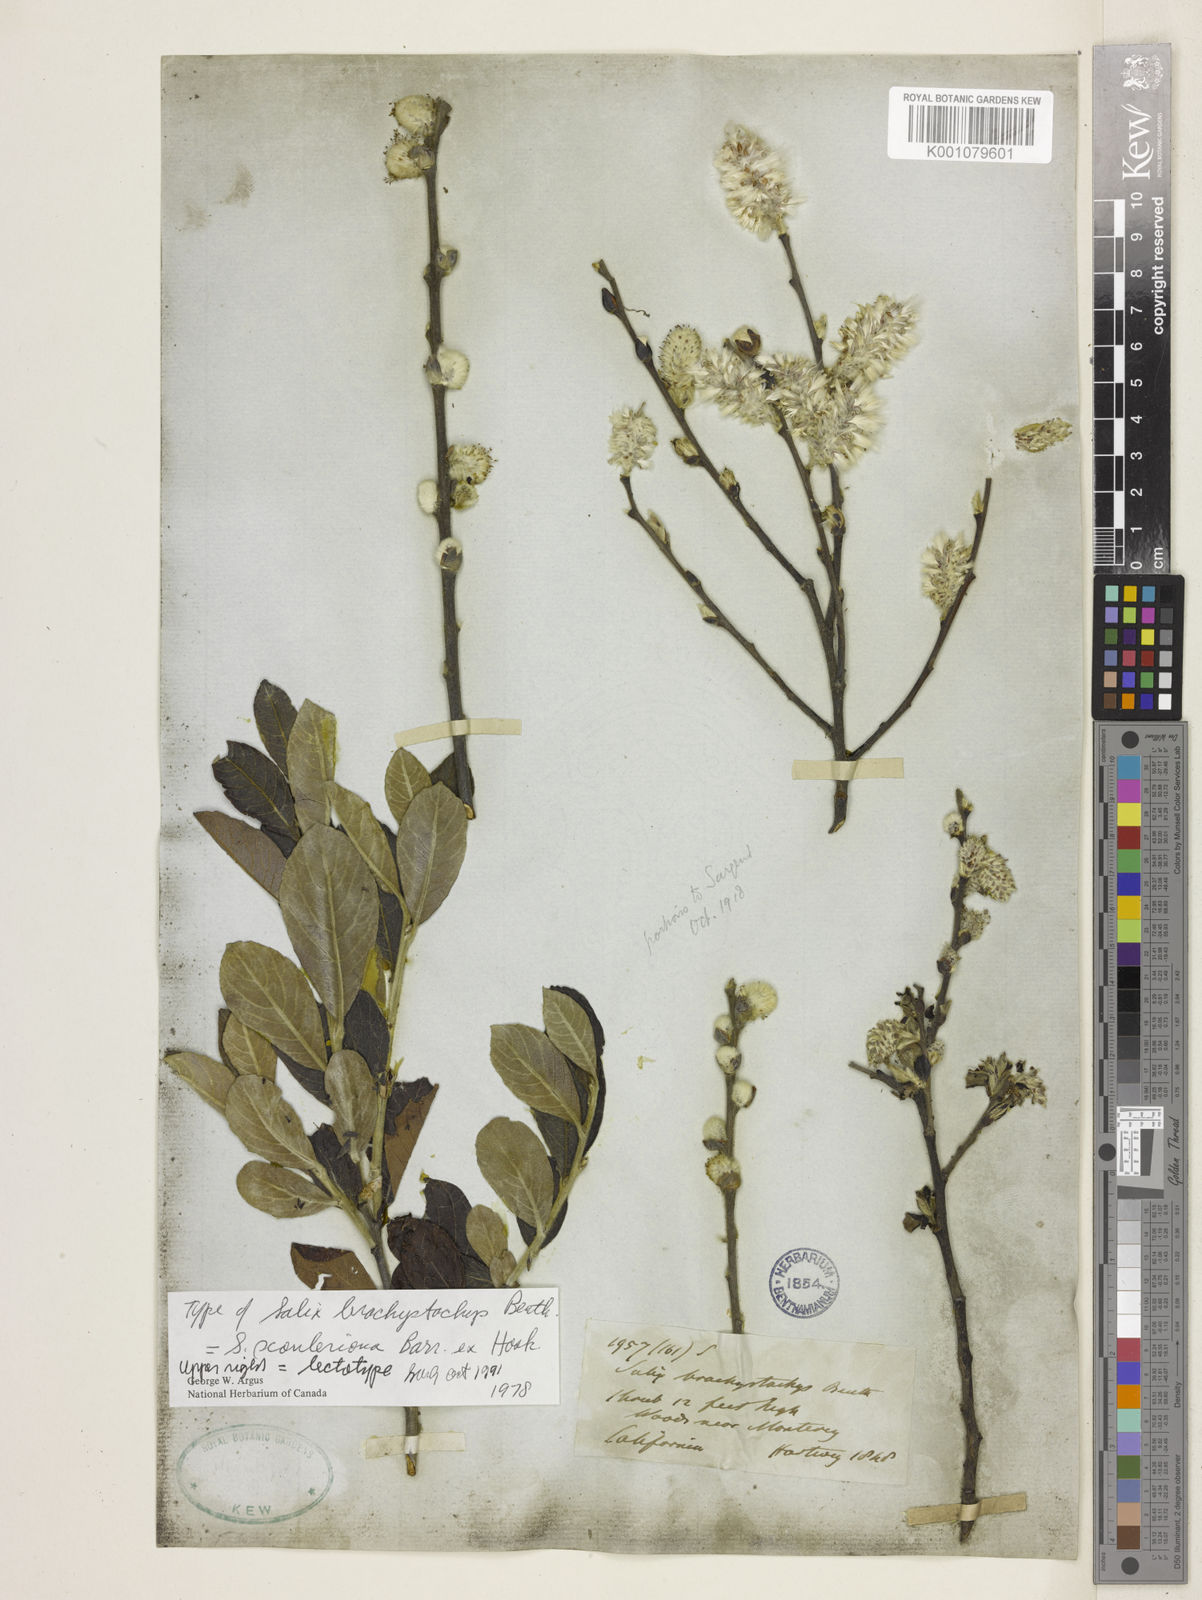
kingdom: Plantae
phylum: Tracheophyta
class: Magnoliopsida
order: Malpighiales
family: Salicaceae
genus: Salix
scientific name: Salix
